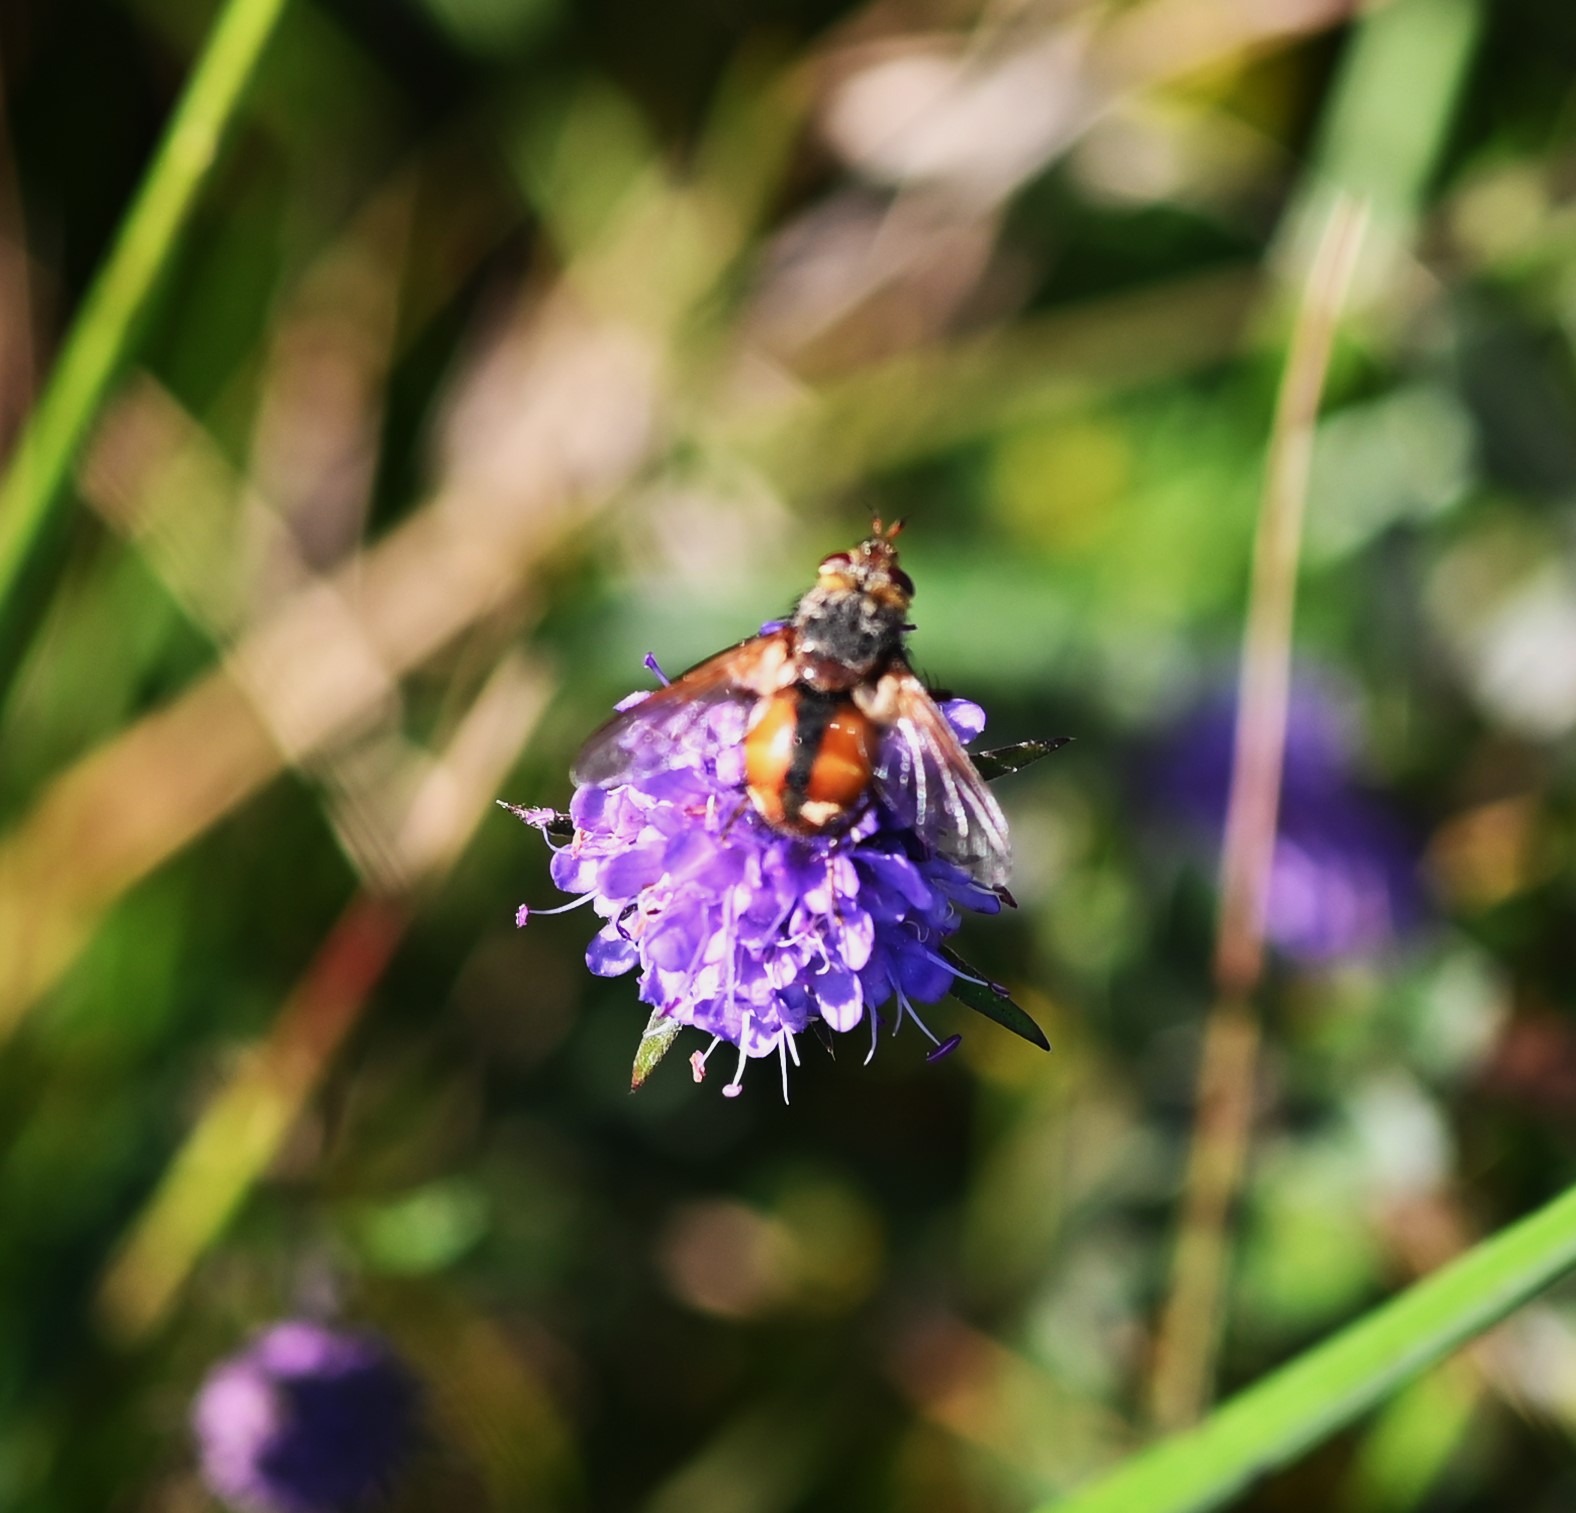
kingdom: Animalia
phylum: Arthropoda
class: Insecta
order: Diptera
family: Tachinidae
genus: Tachina
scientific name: Tachina fera
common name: Mellemfluen oskar
